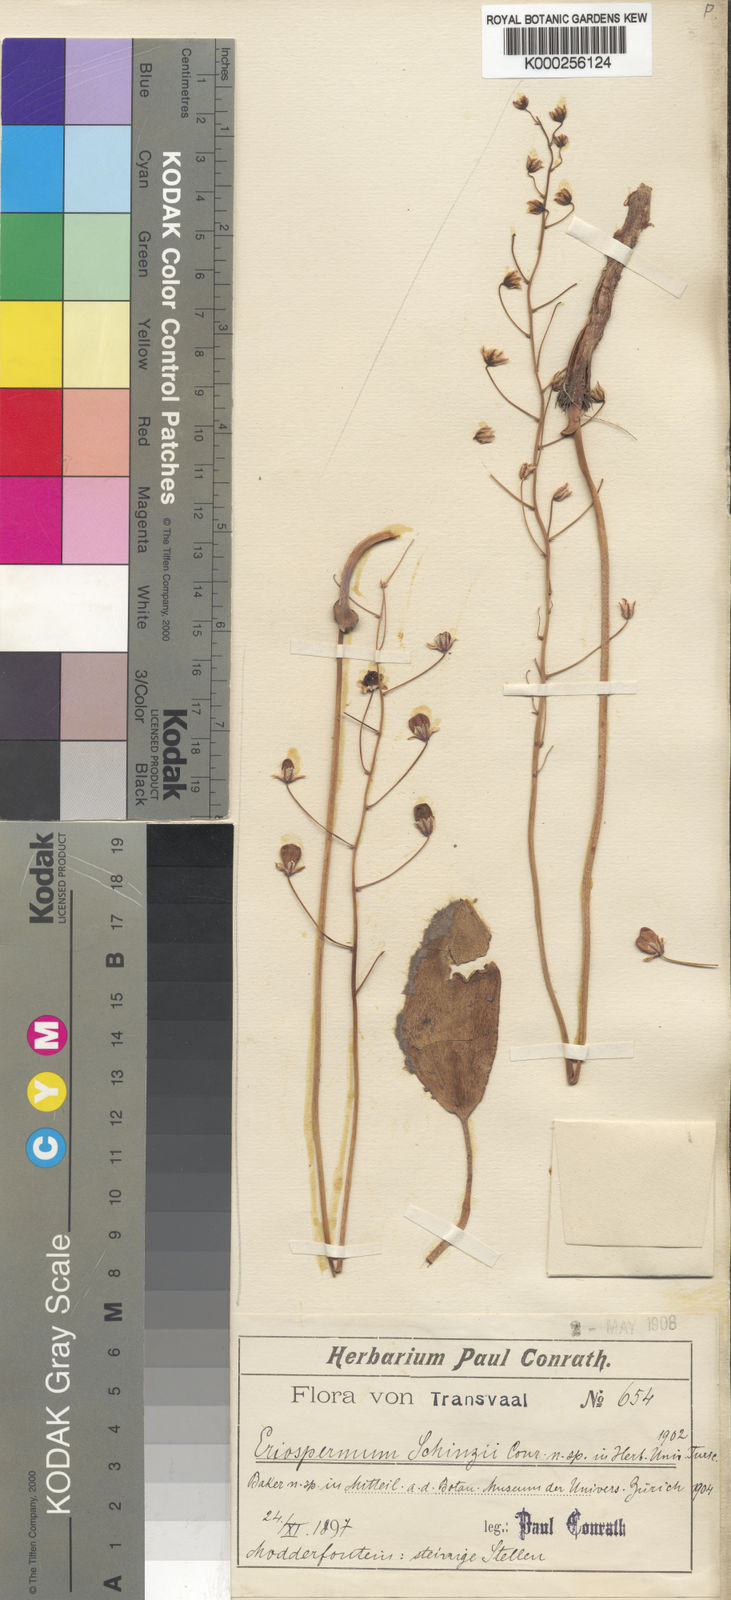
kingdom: Plantae
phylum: Tracheophyta
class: Liliopsida
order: Asparagales
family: Asparagaceae
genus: Eriospermum
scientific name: Eriospermum schinzii
